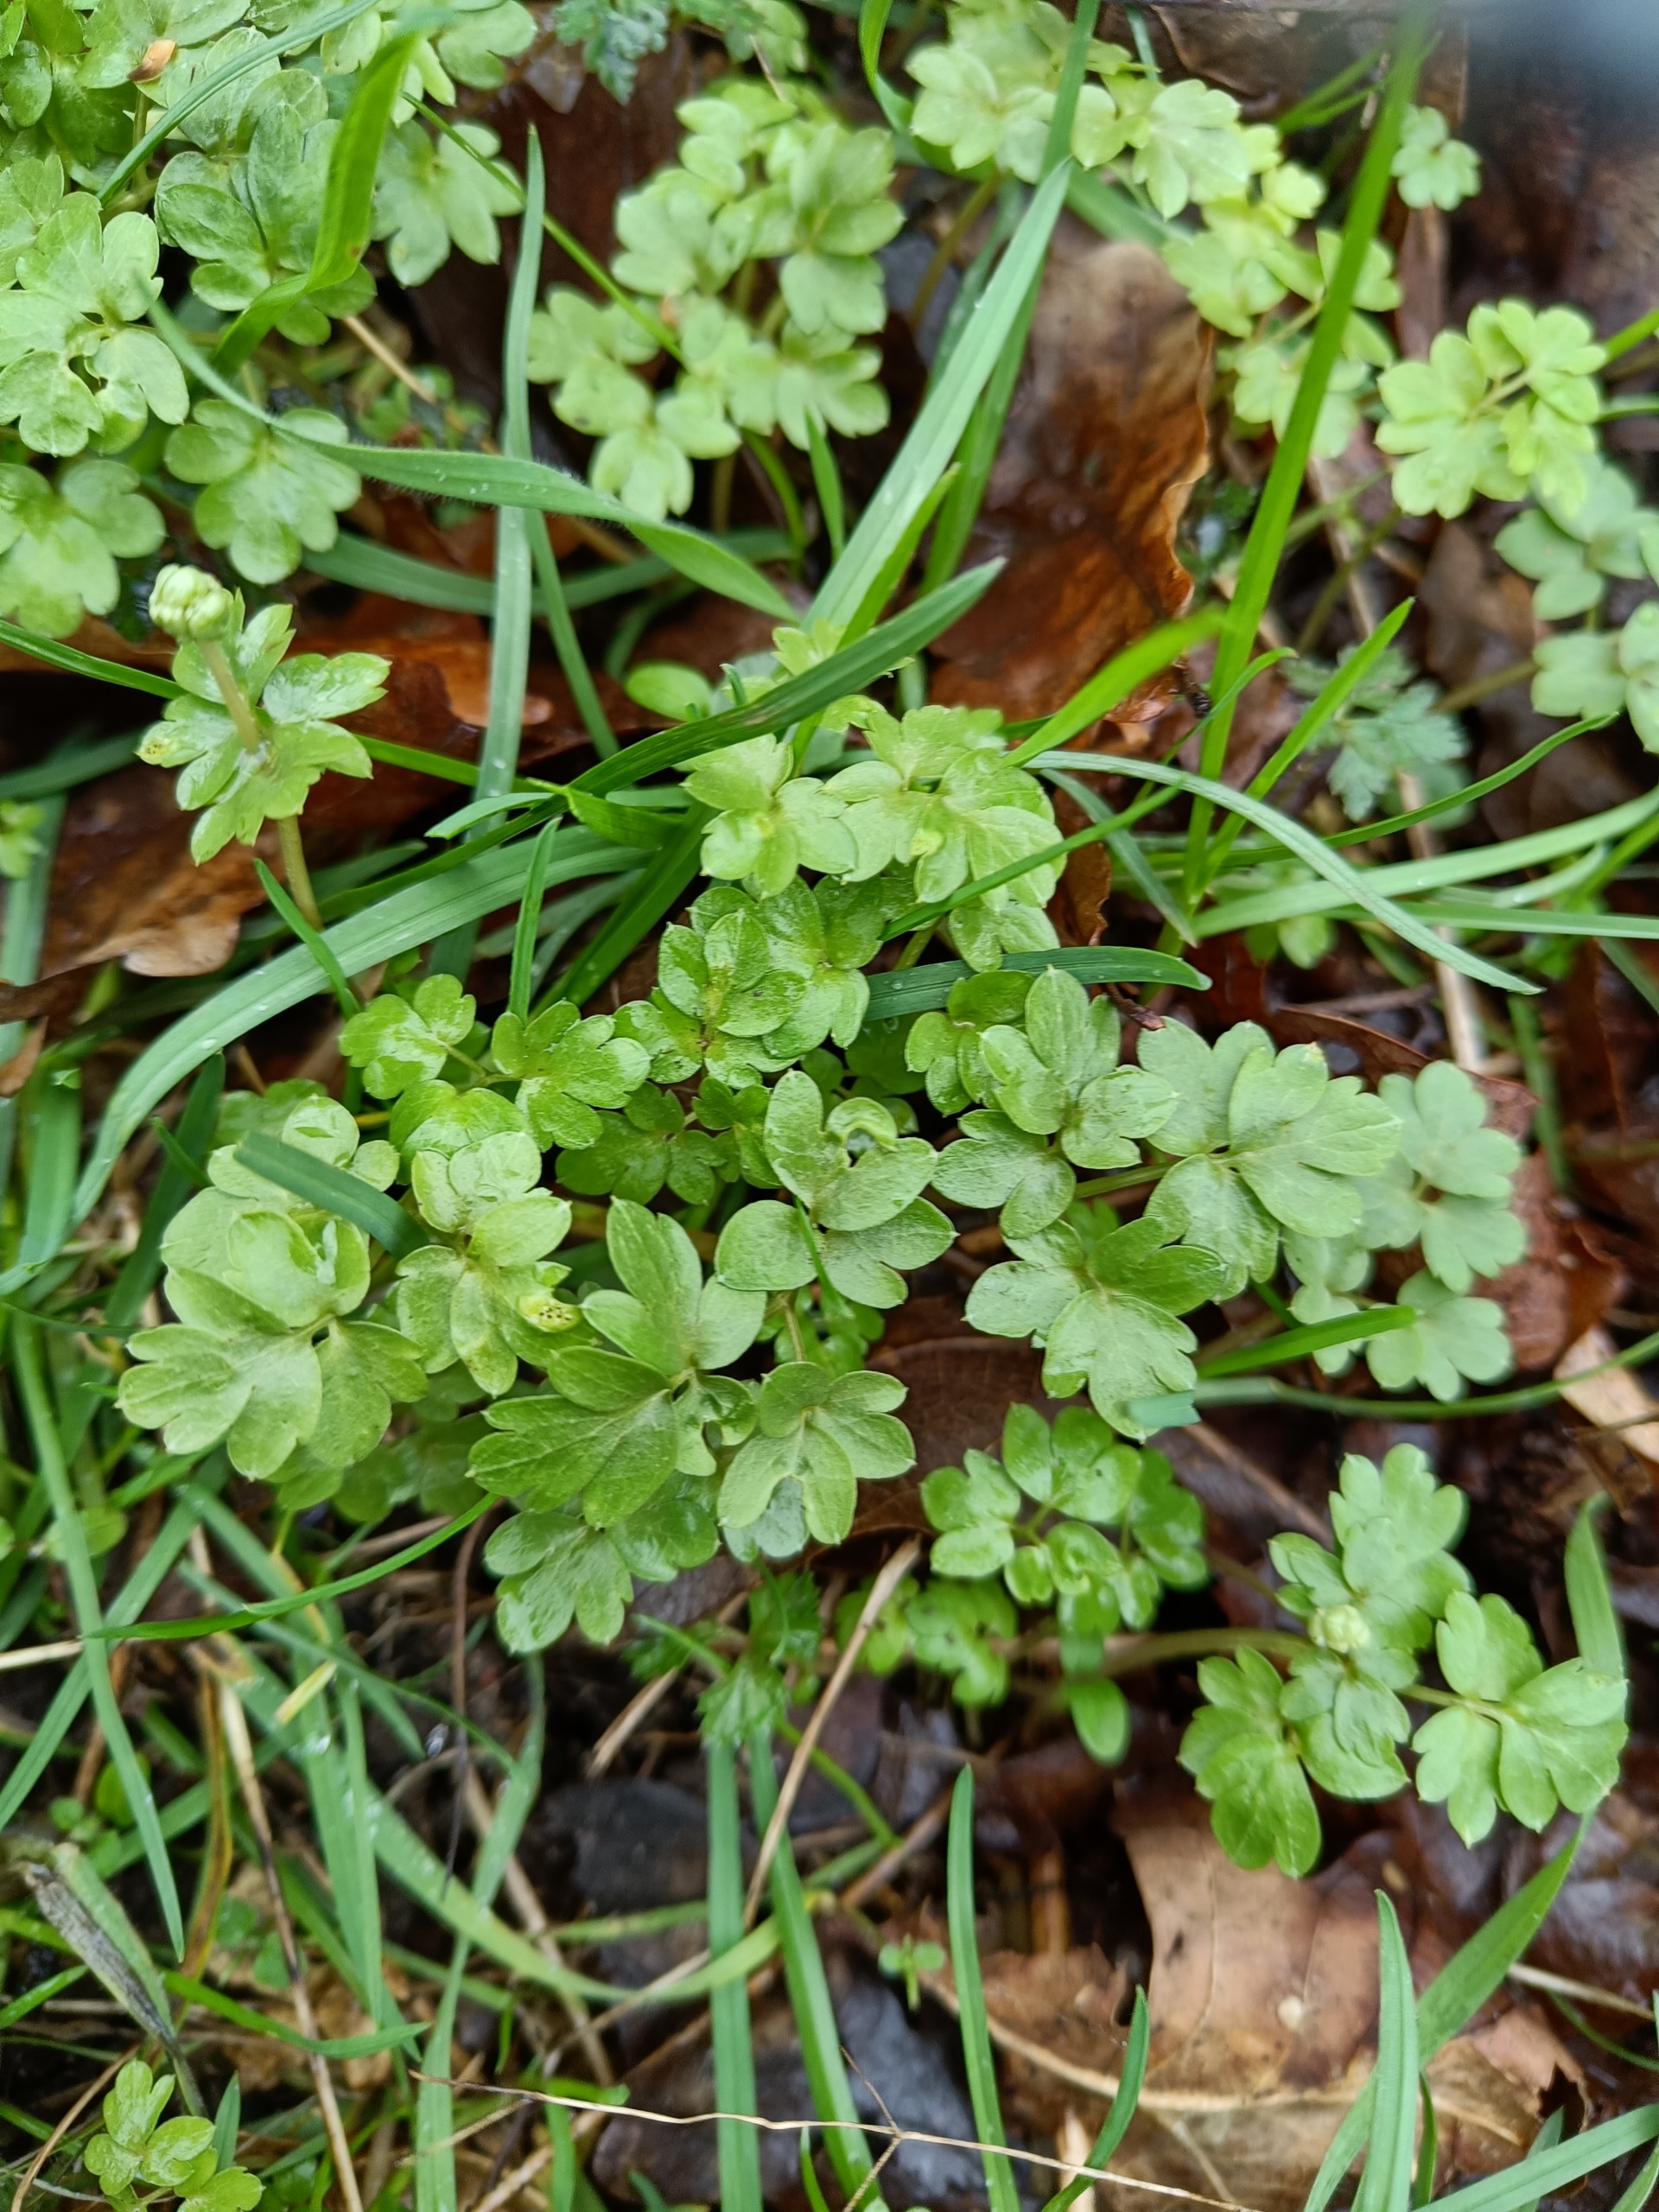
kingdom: Plantae
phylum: Tracheophyta
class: Magnoliopsida
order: Dipsacales
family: Viburnaceae
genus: Adoxa
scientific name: Adoxa moschatellina
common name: Desmerurt
